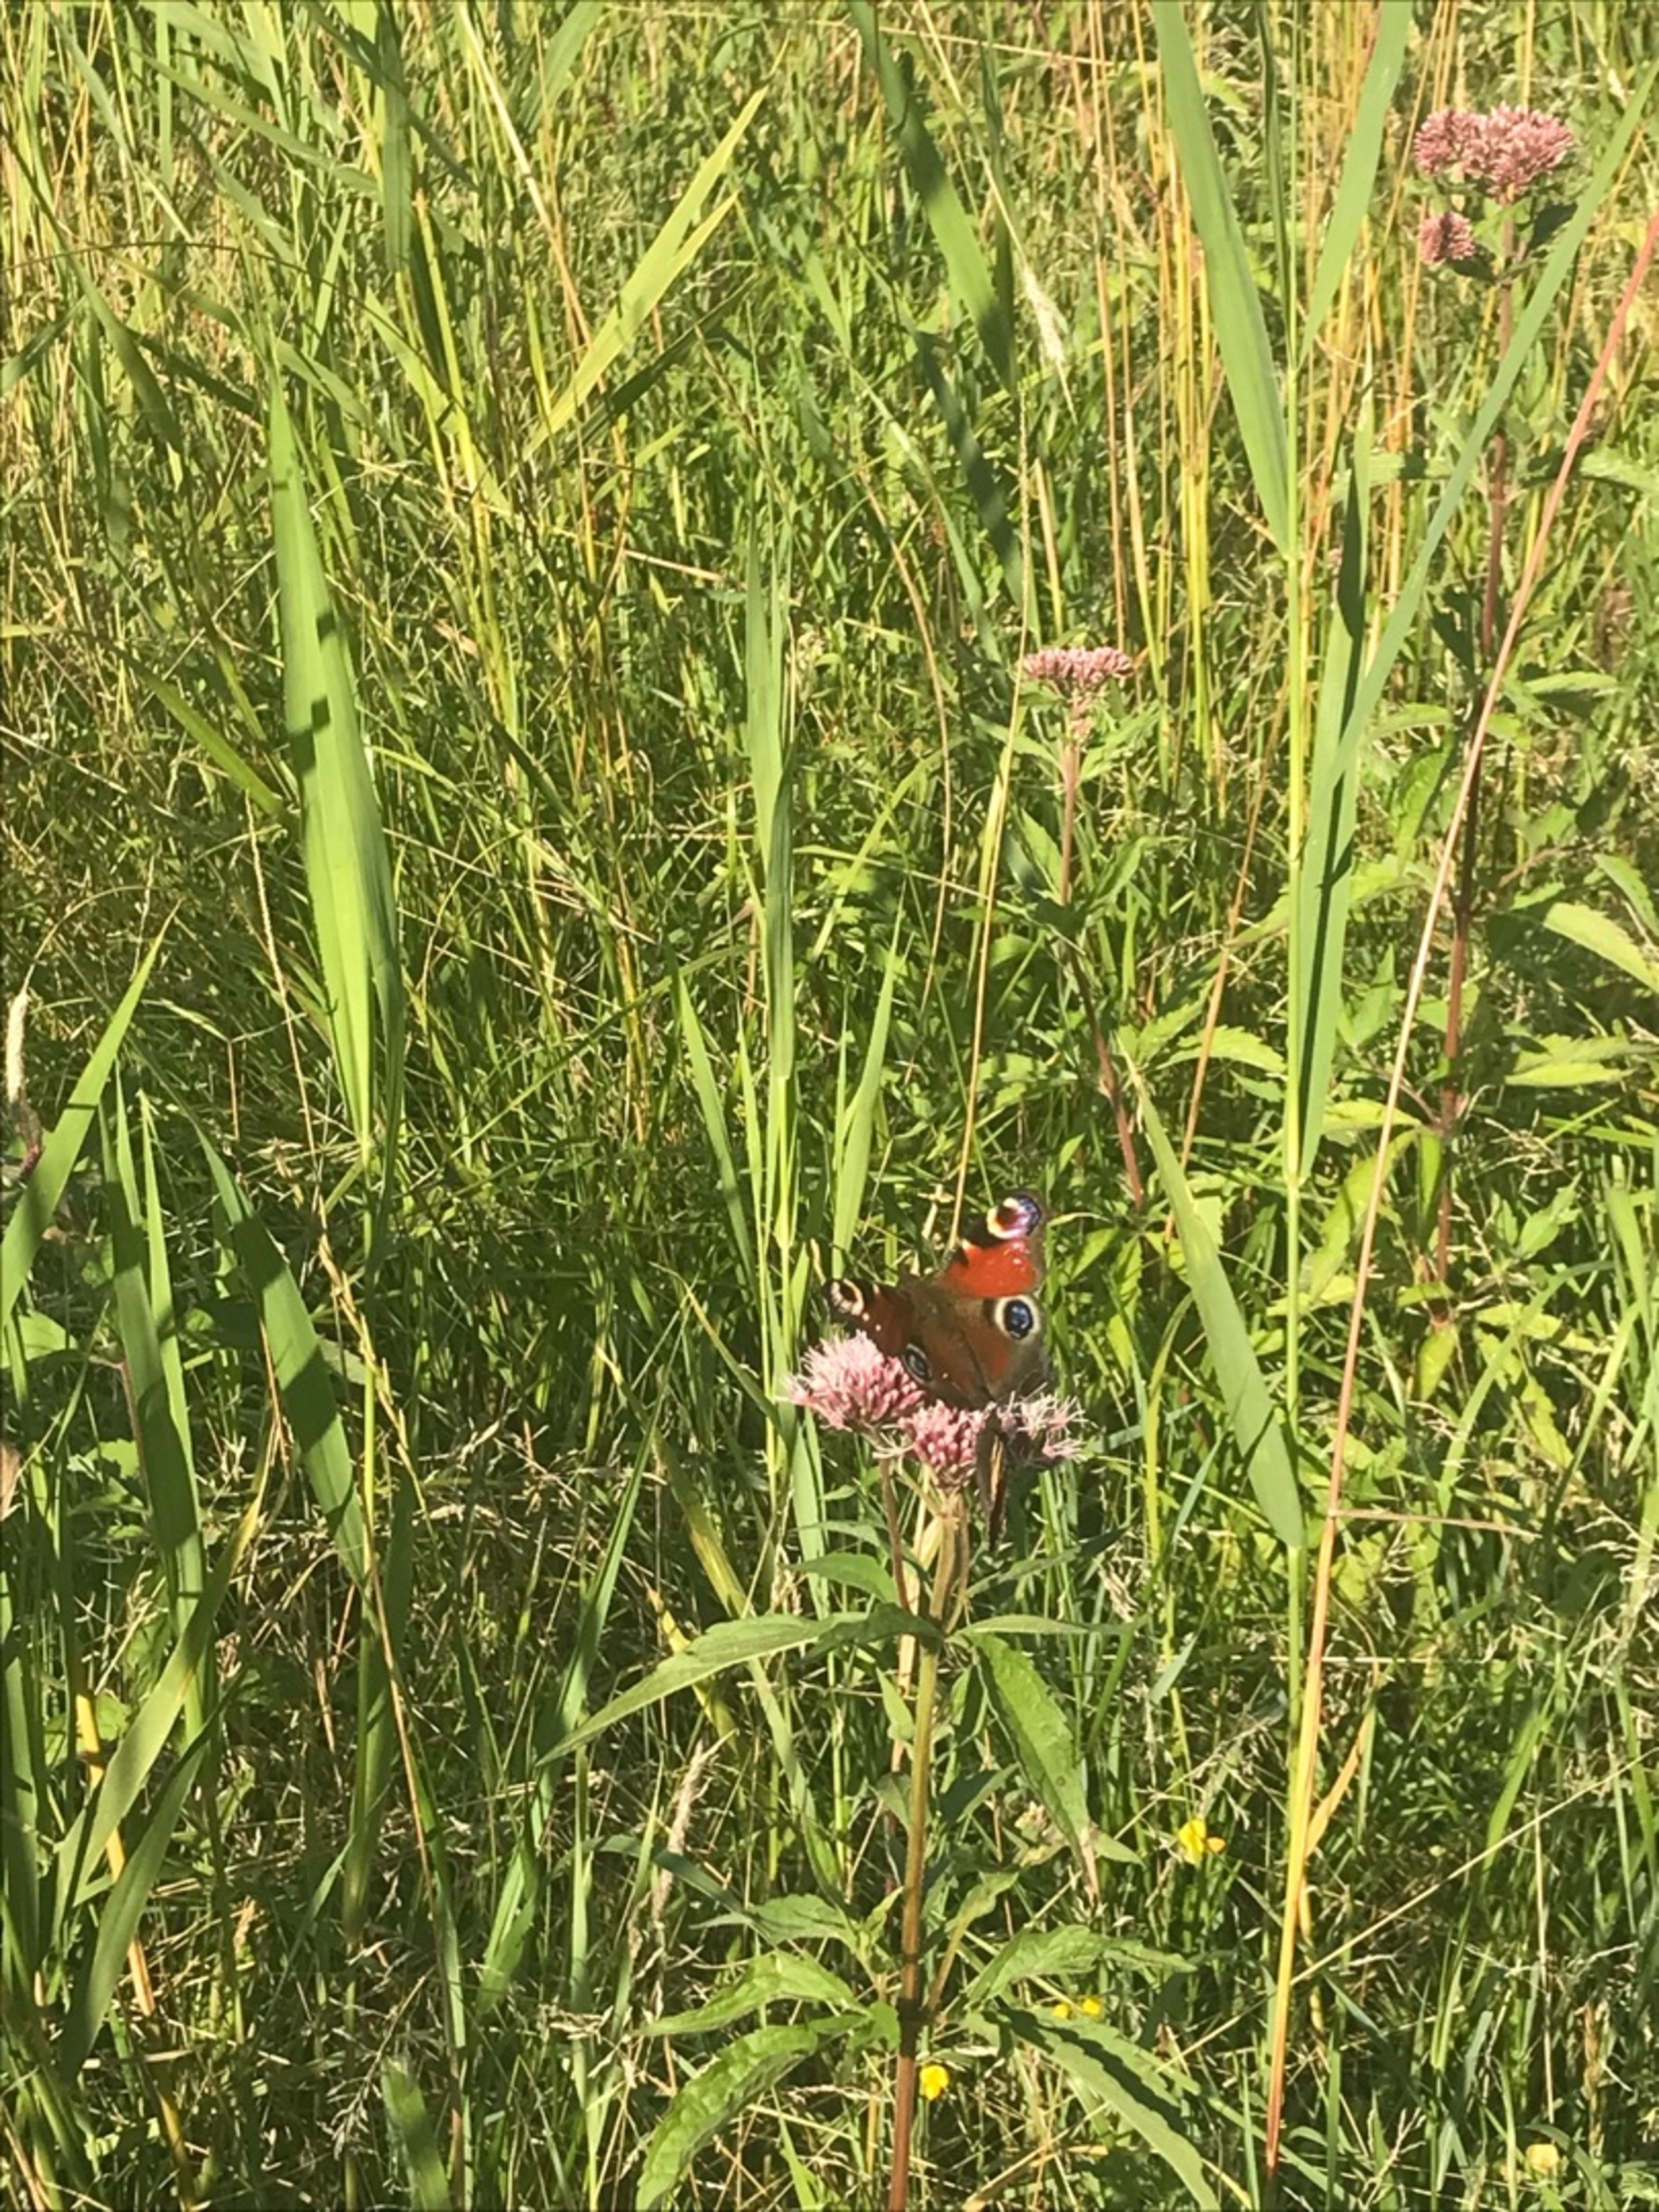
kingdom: Animalia
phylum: Arthropoda
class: Insecta
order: Lepidoptera
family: Nymphalidae
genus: Aglais
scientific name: Aglais io
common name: Dagpåfugleøje
